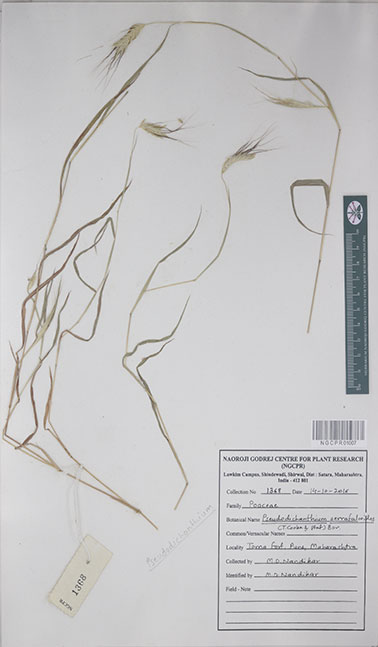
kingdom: Plantae
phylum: Tracheophyta
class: Liliopsida
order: Poales
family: Poaceae
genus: Pseudodichanthium
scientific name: Pseudodichanthium serrafalcoides
